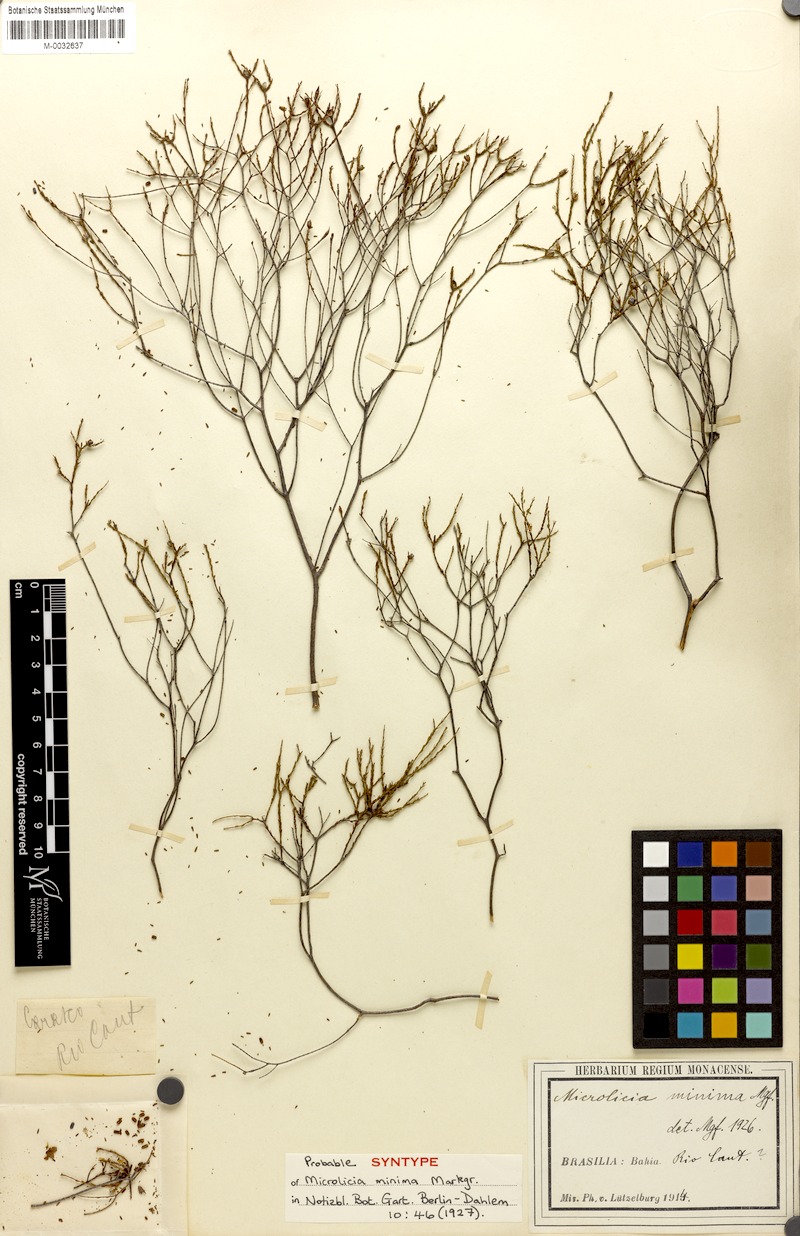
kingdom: Plantae
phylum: Tracheophyta
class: Magnoliopsida
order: Myrtales
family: Melastomataceae
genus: Microlicia
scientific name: Microlicia minima
